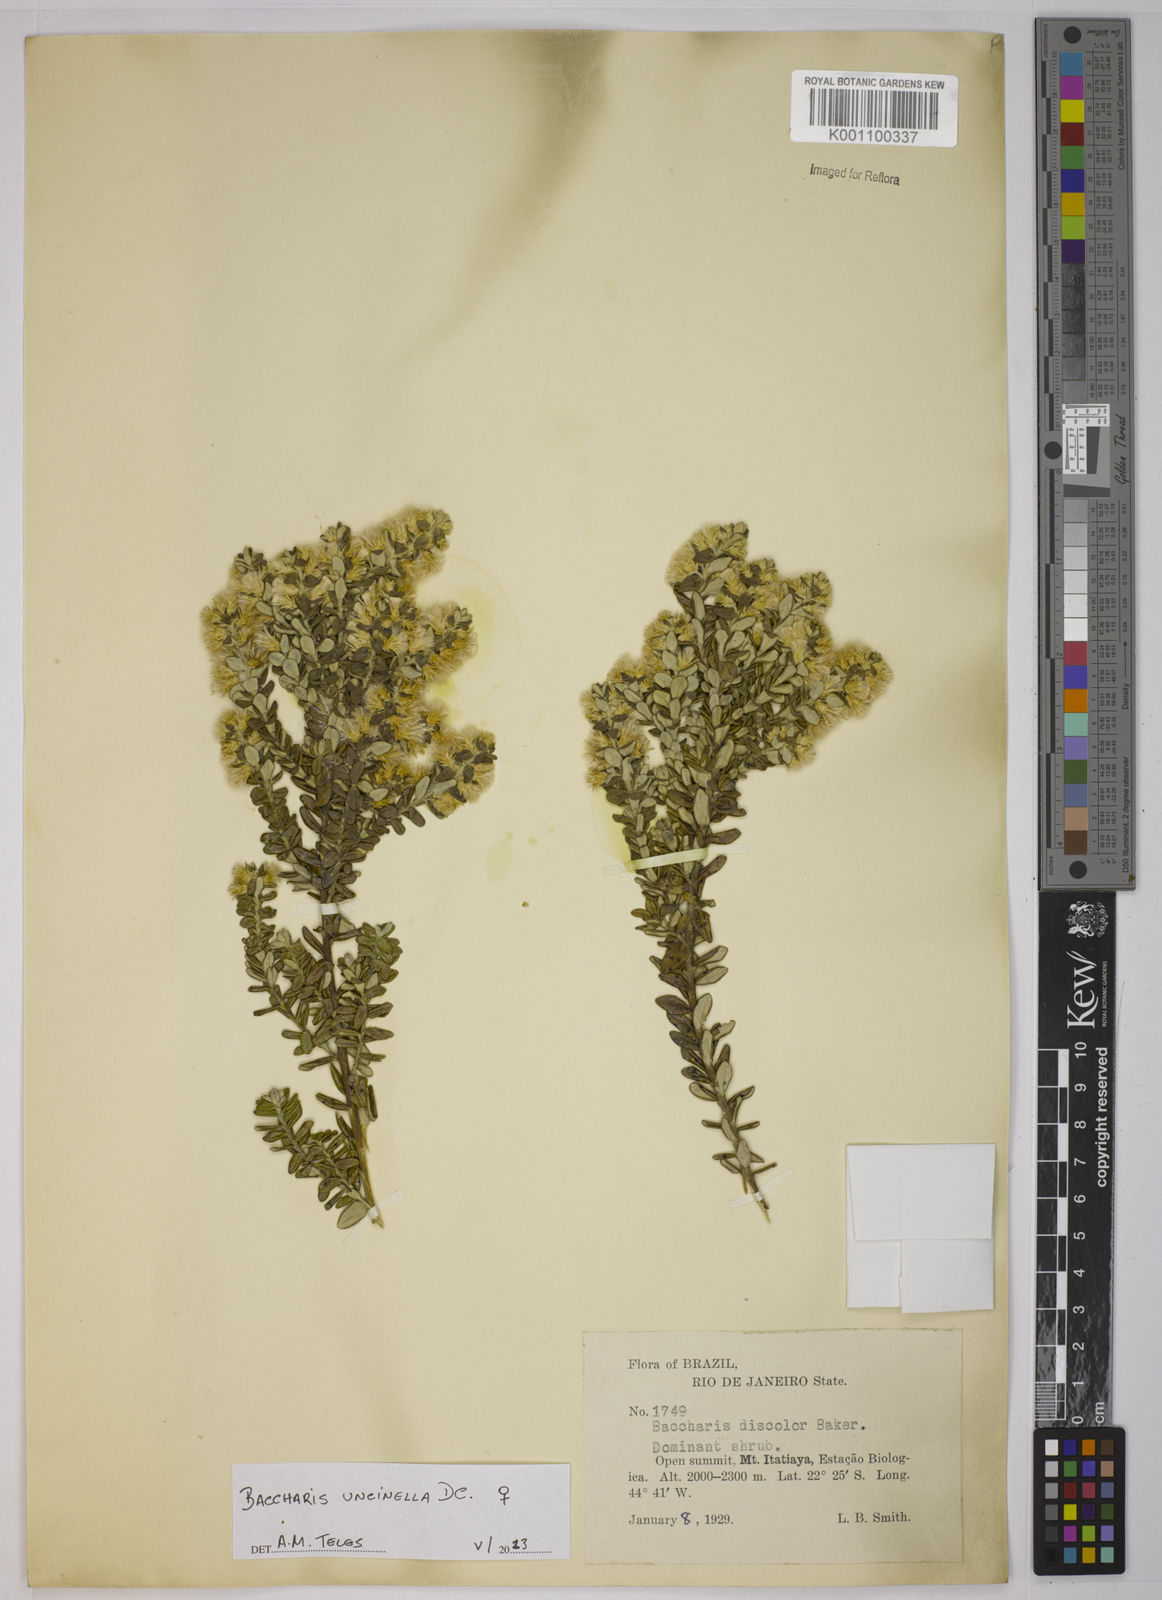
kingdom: Plantae
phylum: Tracheophyta
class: Magnoliopsida
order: Asterales
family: Asteraceae
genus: Baccharis
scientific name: Baccharis uncinella
